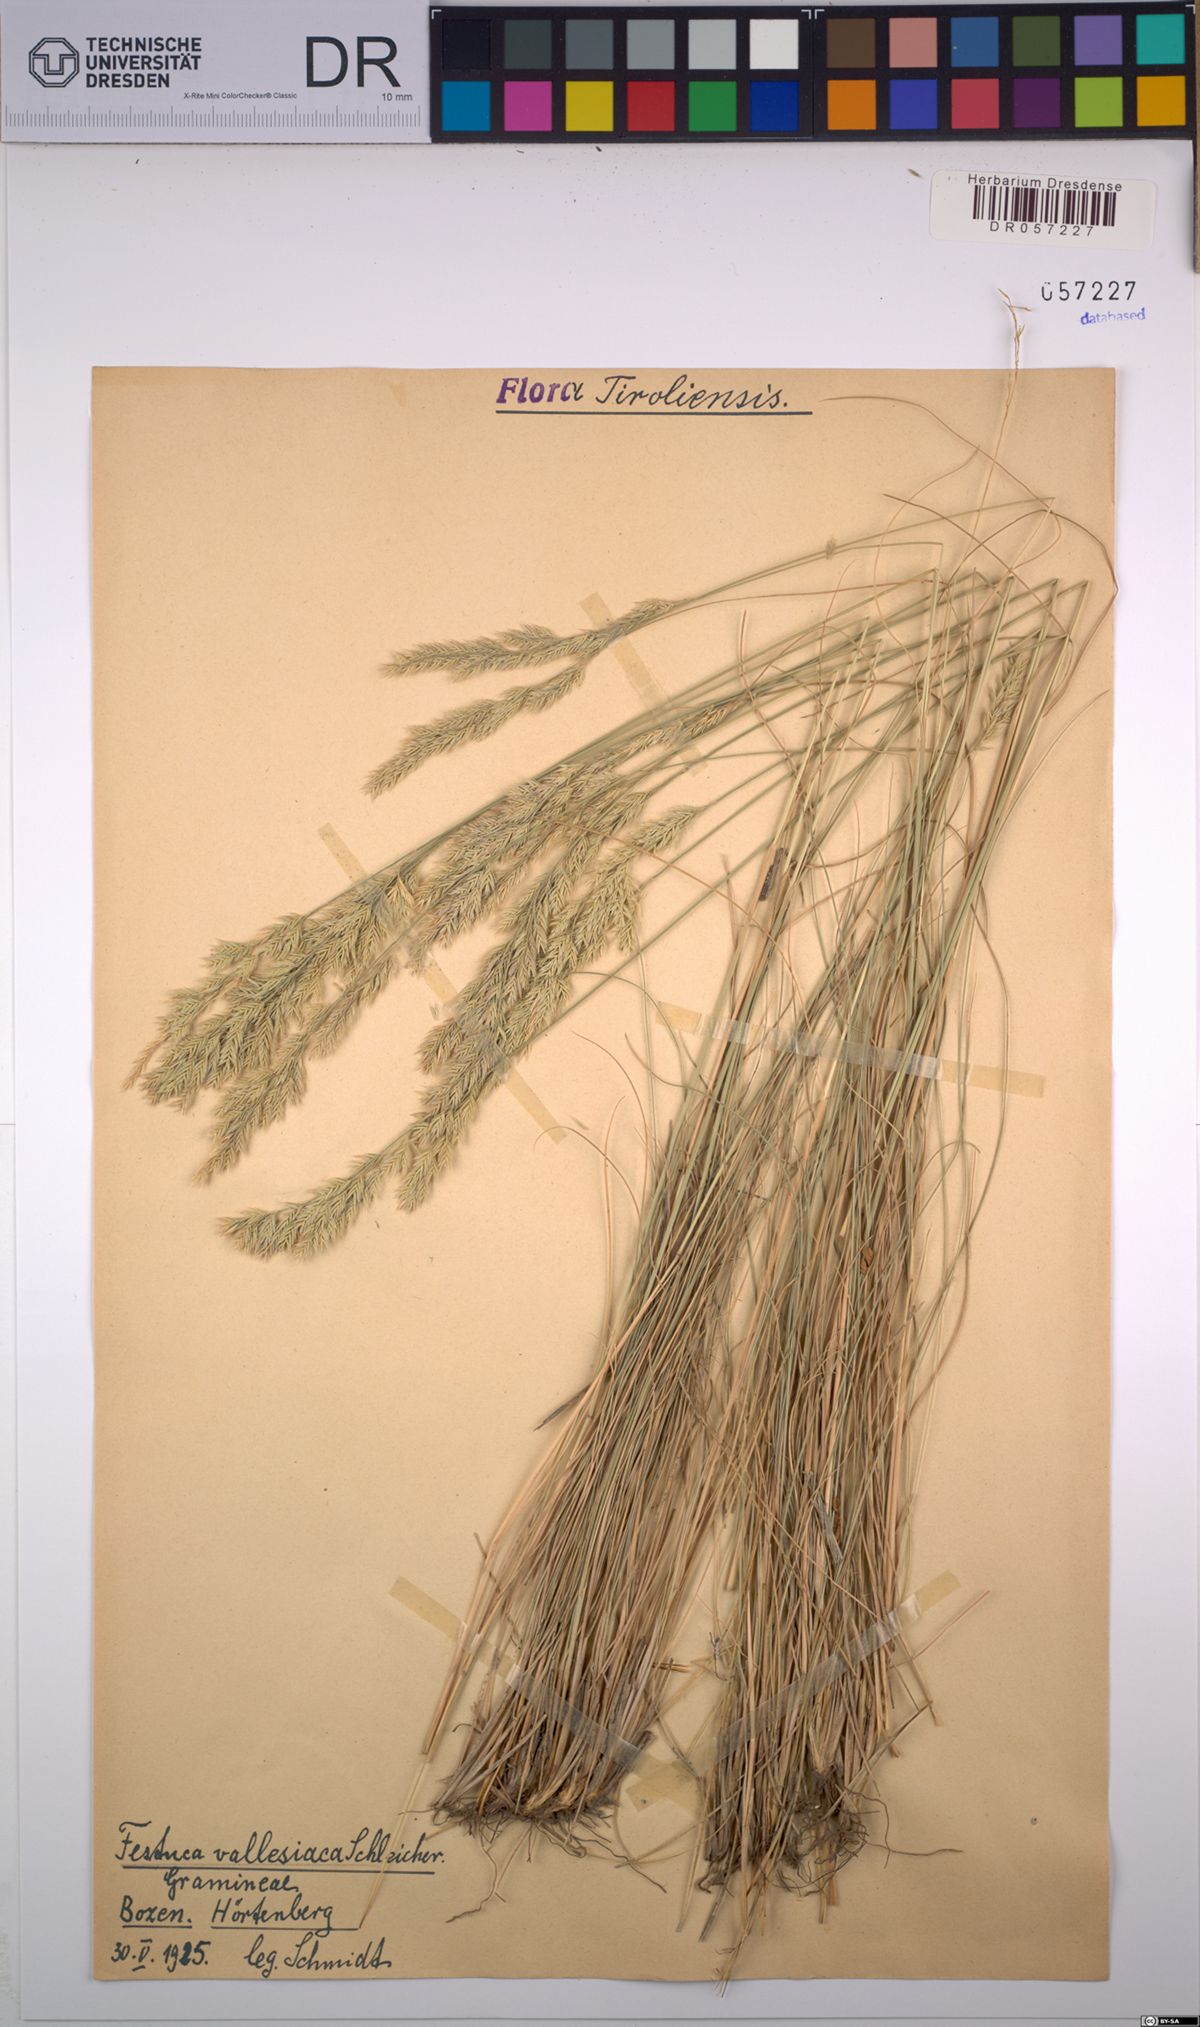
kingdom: Plantae
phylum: Tracheophyta
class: Liliopsida
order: Poales
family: Poaceae
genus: Festuca
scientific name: Festuca valesiaca
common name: Volga fescue
